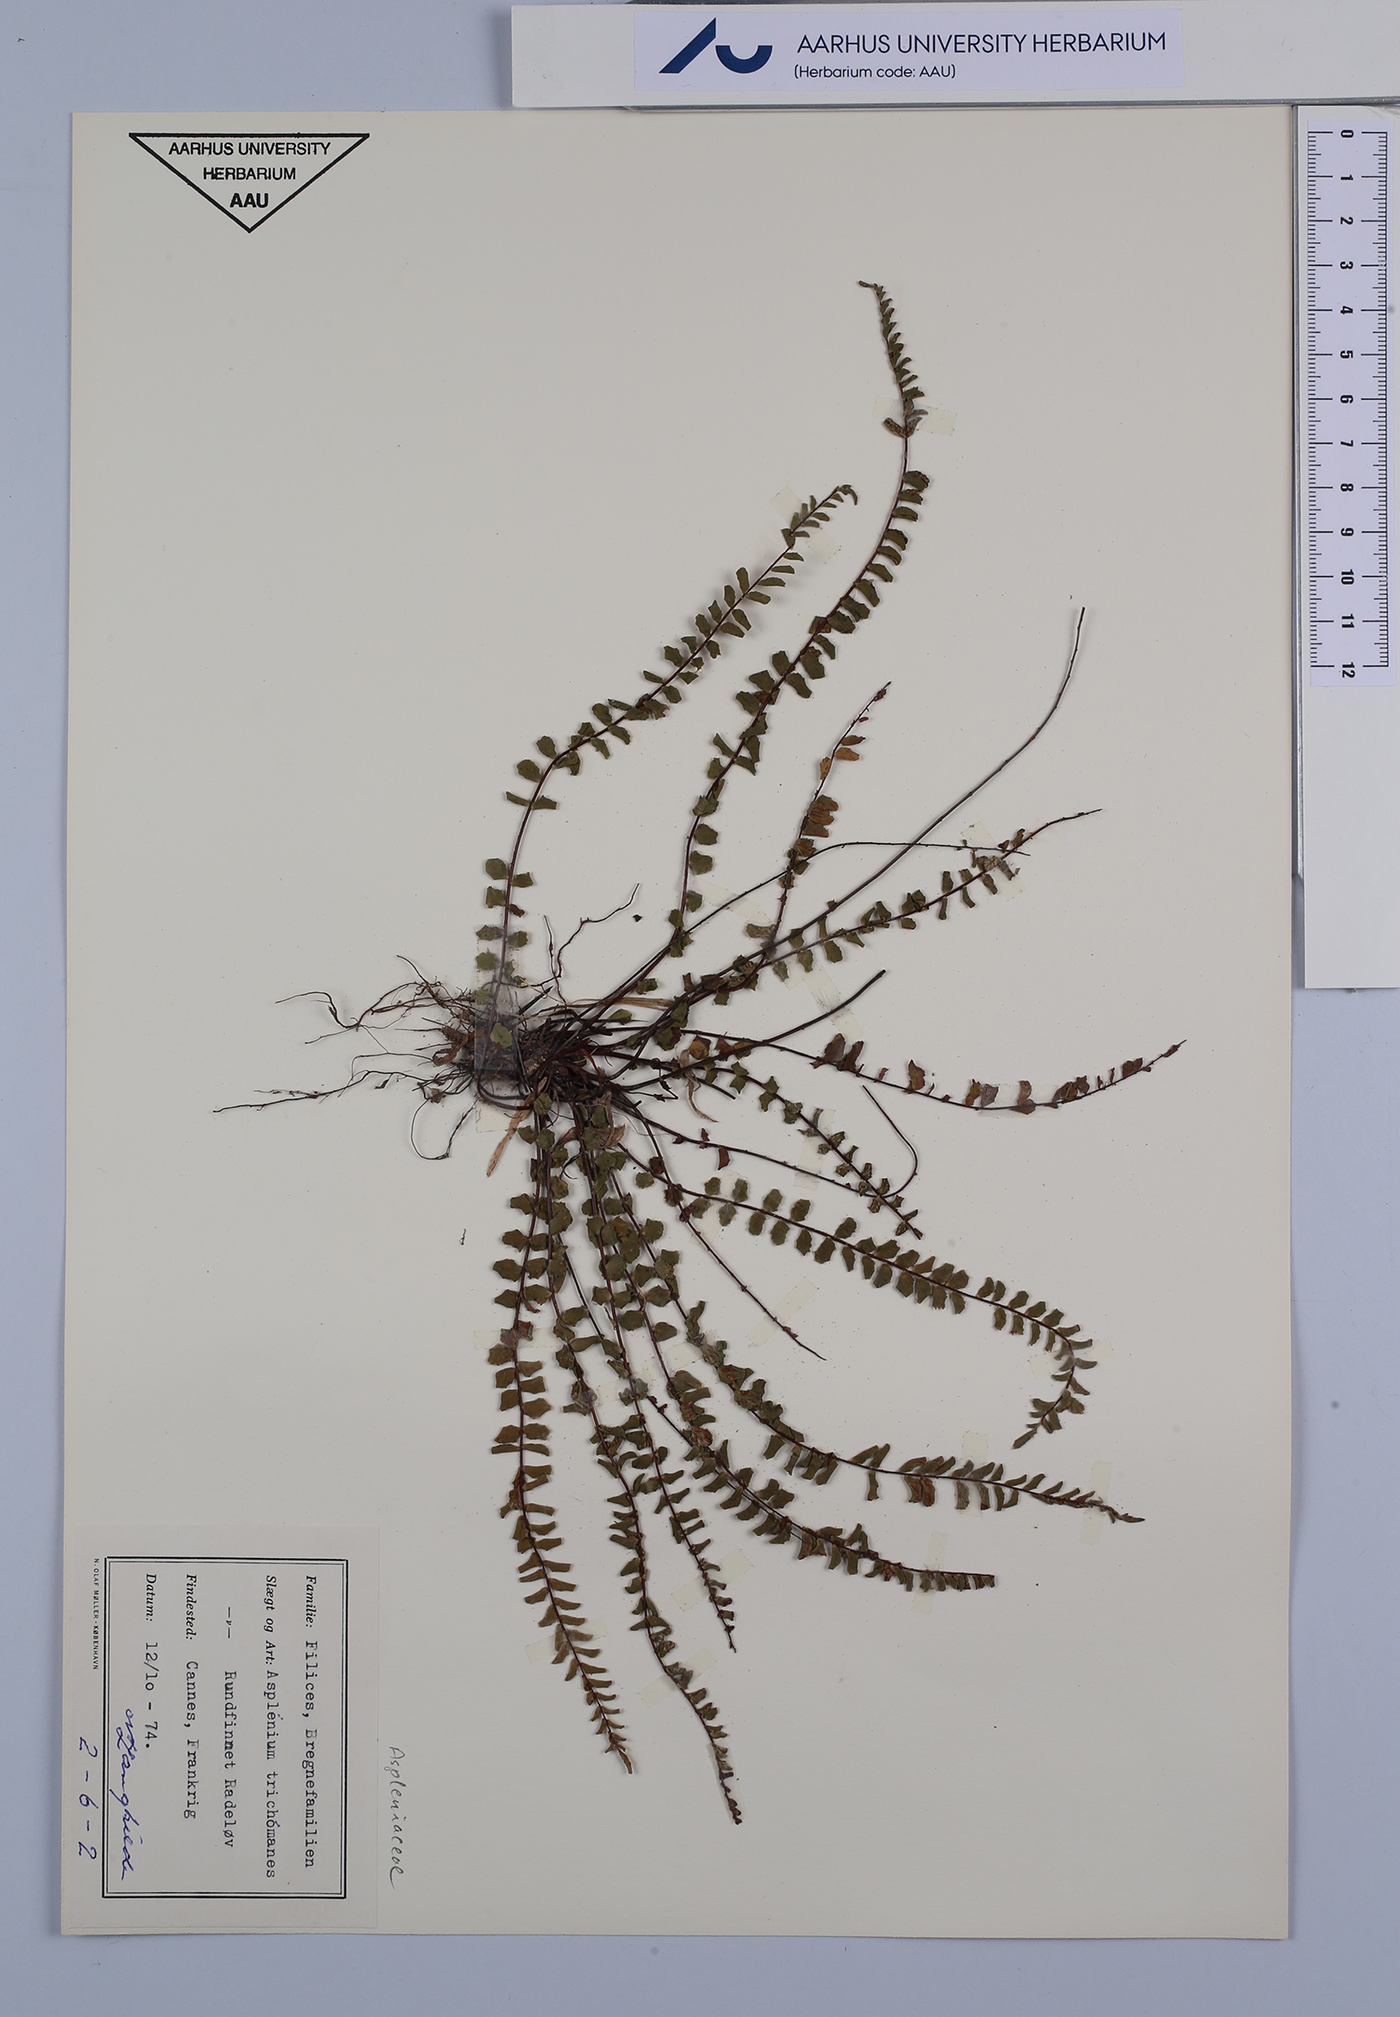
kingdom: Plantae
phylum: Tracheophyta
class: Polypodiopsida
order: Polypodiales
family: Aspleniaceae
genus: Asplenium
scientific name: Asplenium trichomanes
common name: Maidenhair spleenwort
